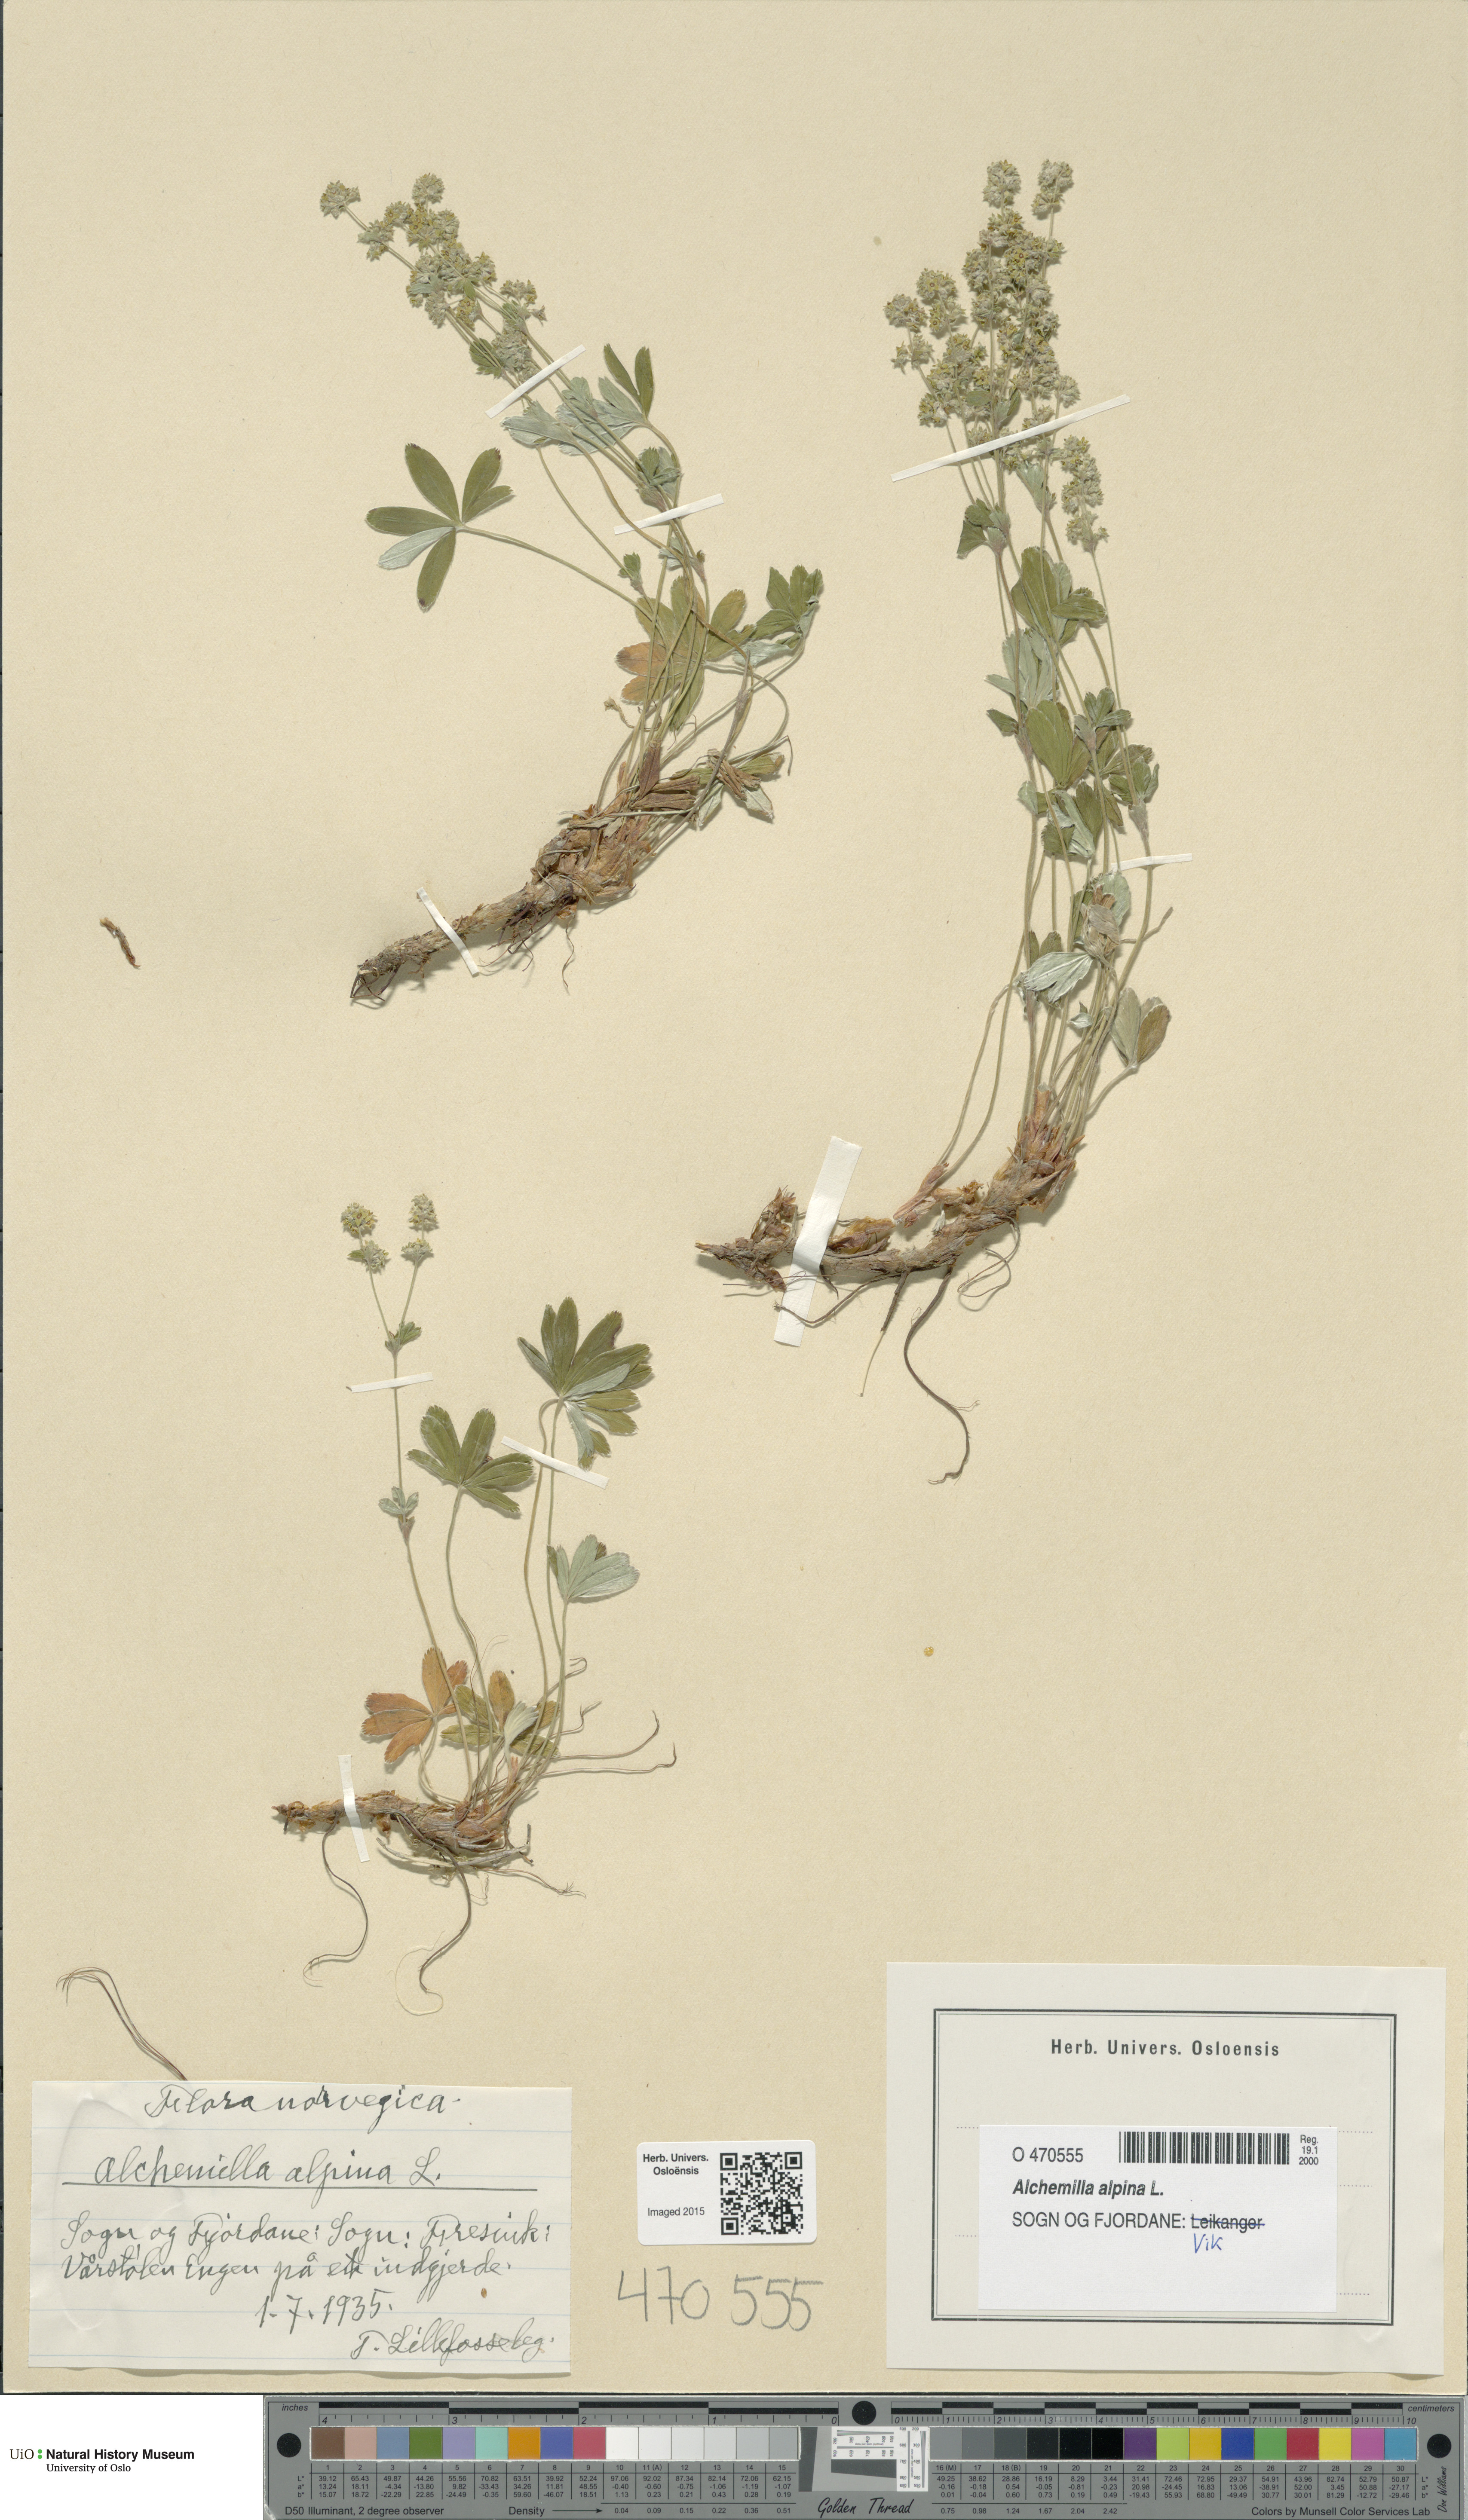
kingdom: Plantae
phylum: Tracheophyta
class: Magnoliopsida
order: Rosales
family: Rosaceae
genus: Alchemilla
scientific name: Alchemilla alpina
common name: Alpine lady's-mantle
